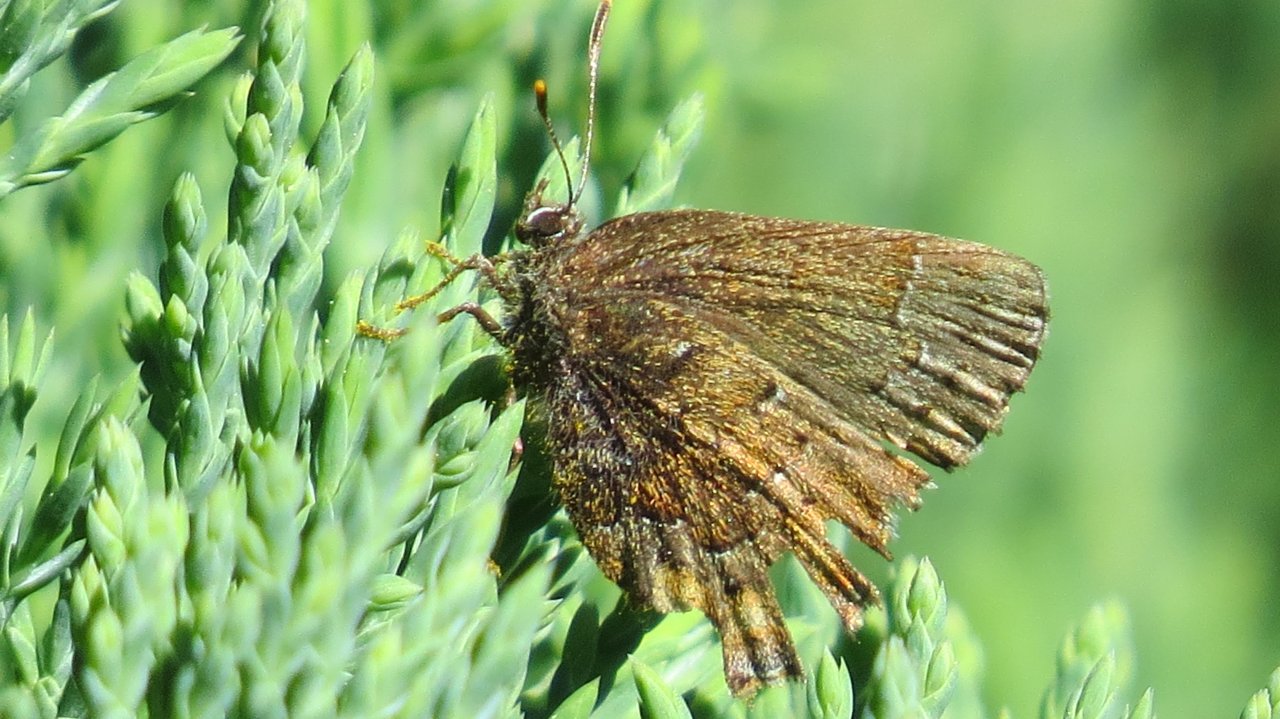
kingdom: Animalia
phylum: Arthropoda
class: Insecta
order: Lepidoptera
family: Lycaenidae
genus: Incisalia
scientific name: Incisalia niphon
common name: Eastern Pine Elfin
